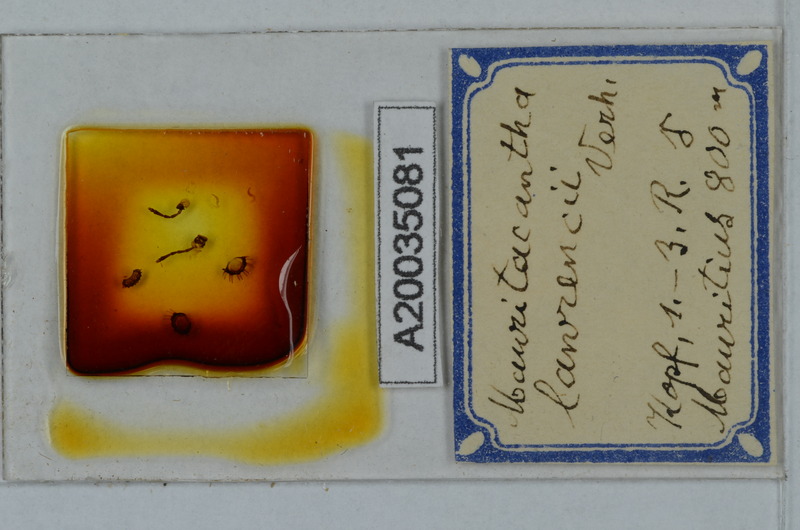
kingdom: Animalia
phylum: Arthropoda
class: Diplopoda
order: Polydesmida
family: Trichopolydesmidae
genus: Mauritacantha
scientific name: Mauritacantha lawrencei
